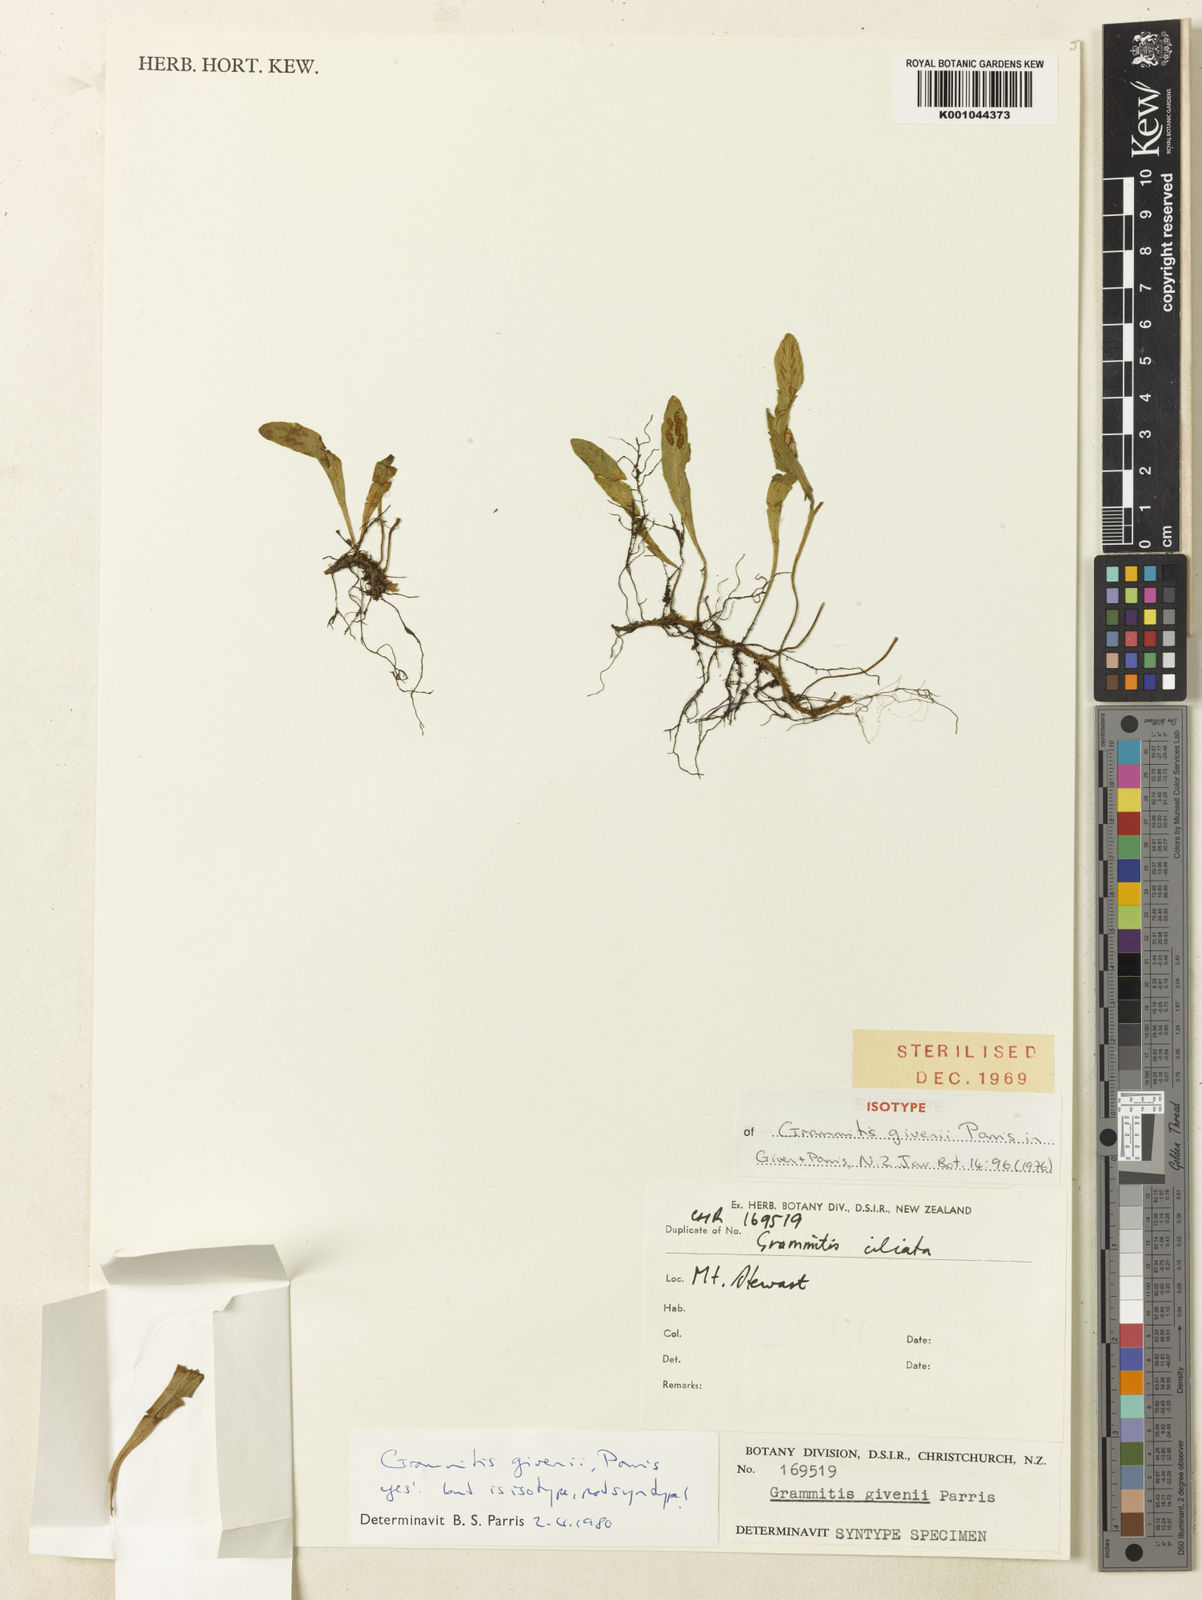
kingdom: Plantae
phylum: Tracheophyta
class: Polypodiopsida
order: Polypodiales
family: Polypodiaceae
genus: Notogrammitis
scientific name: Notogrammitis givenii
